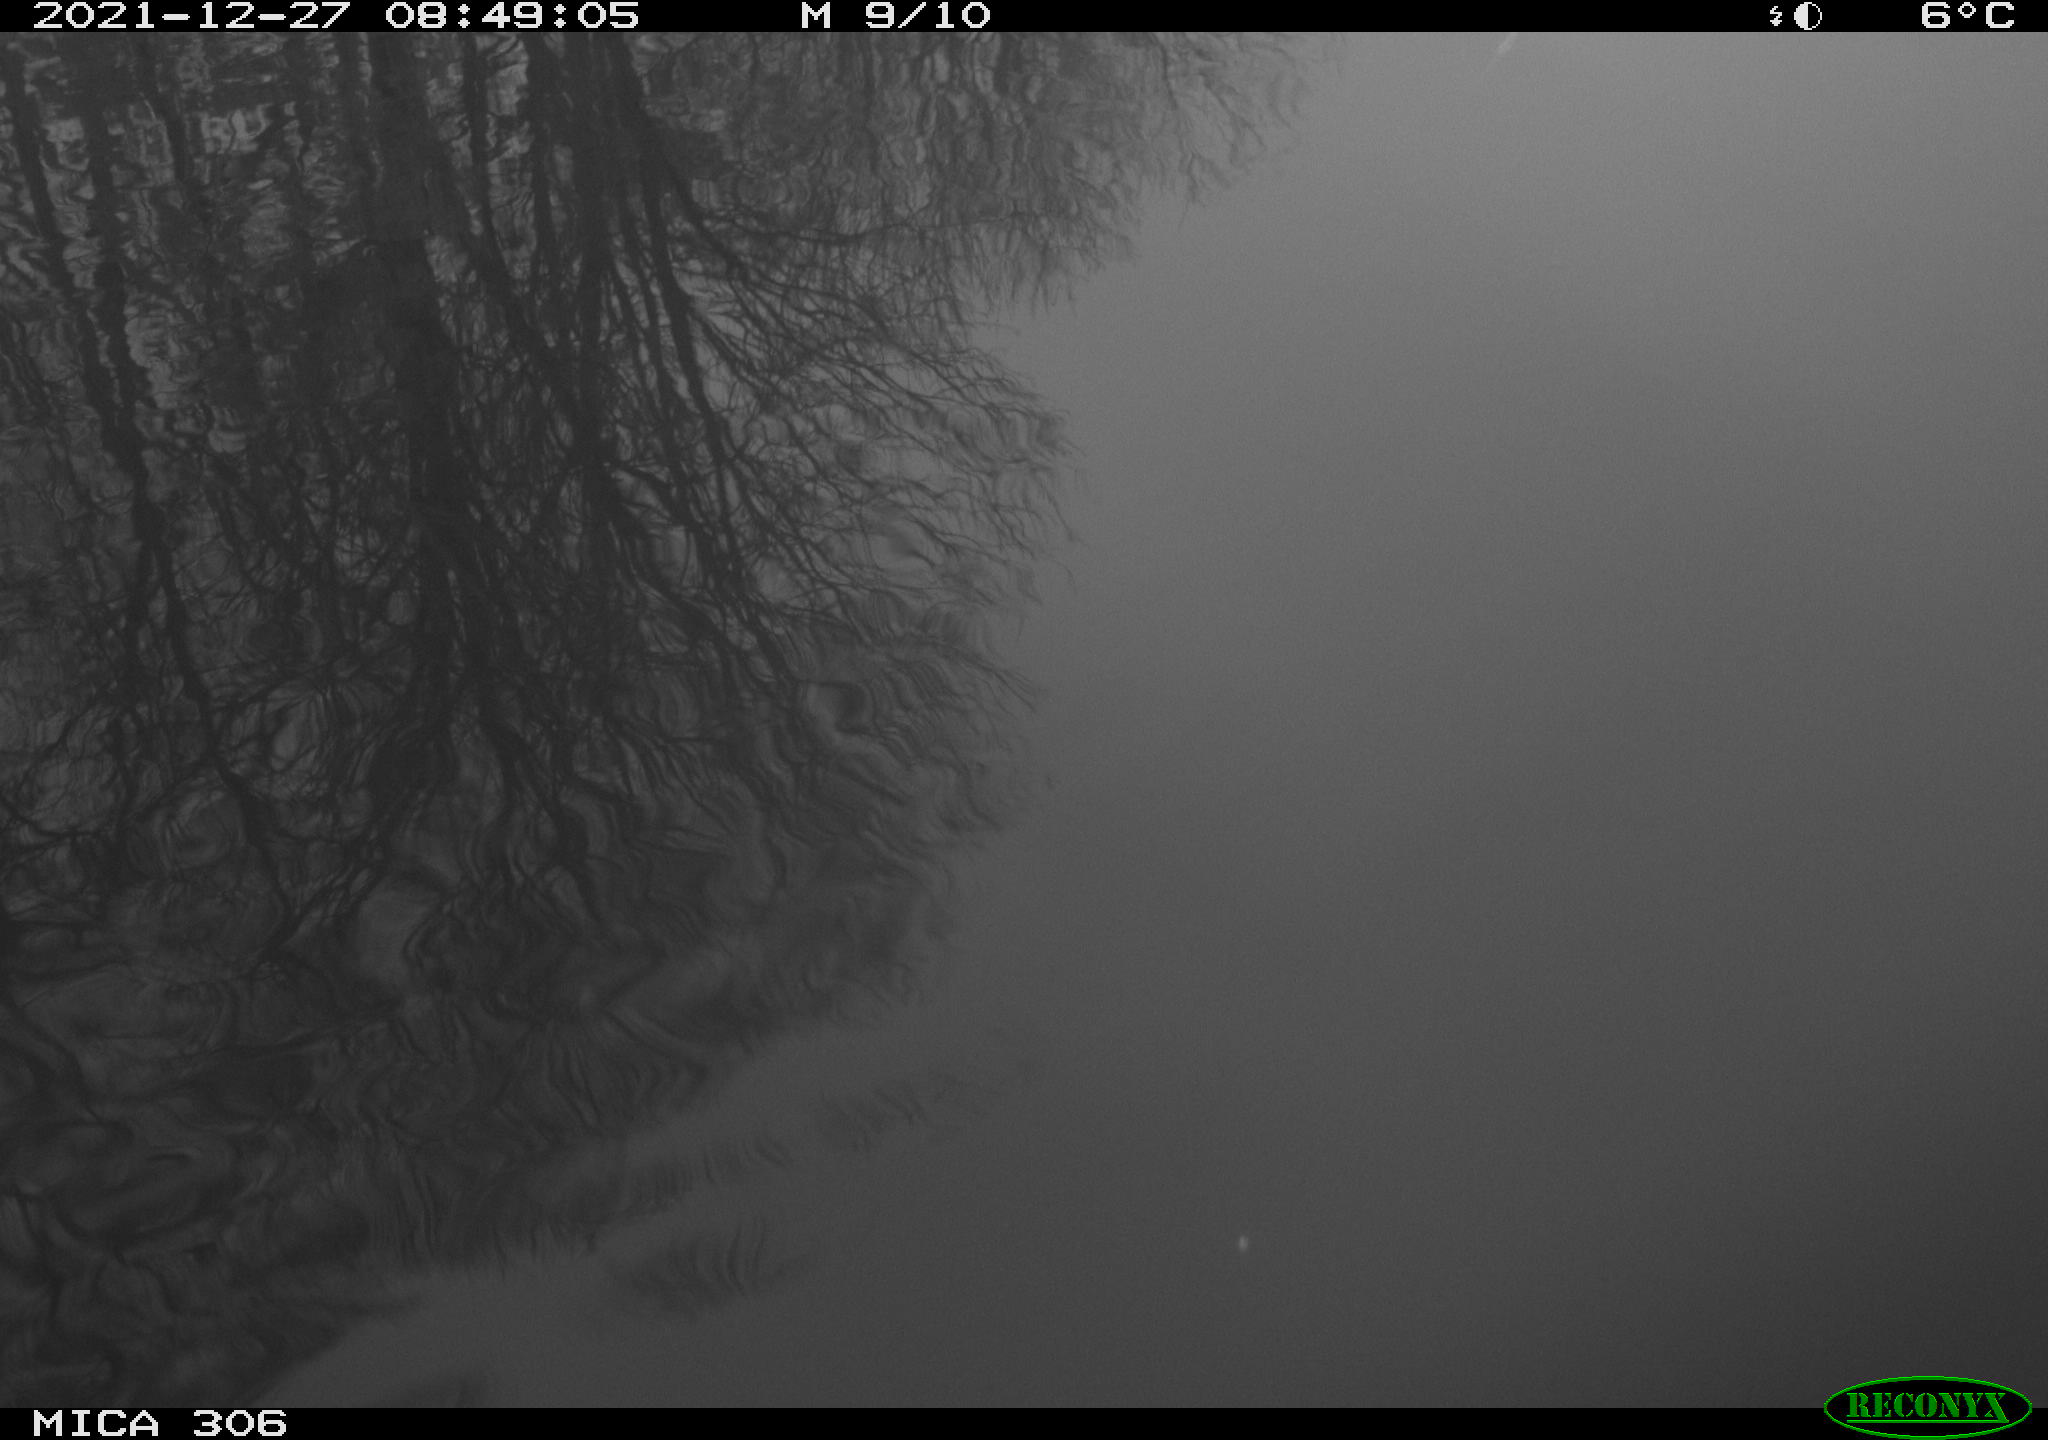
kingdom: Animalia
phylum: Chordata
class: Aves
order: Gruiformes
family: Rallidae
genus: Gallinula
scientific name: Gallinula chloropus
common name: Common moorhen
